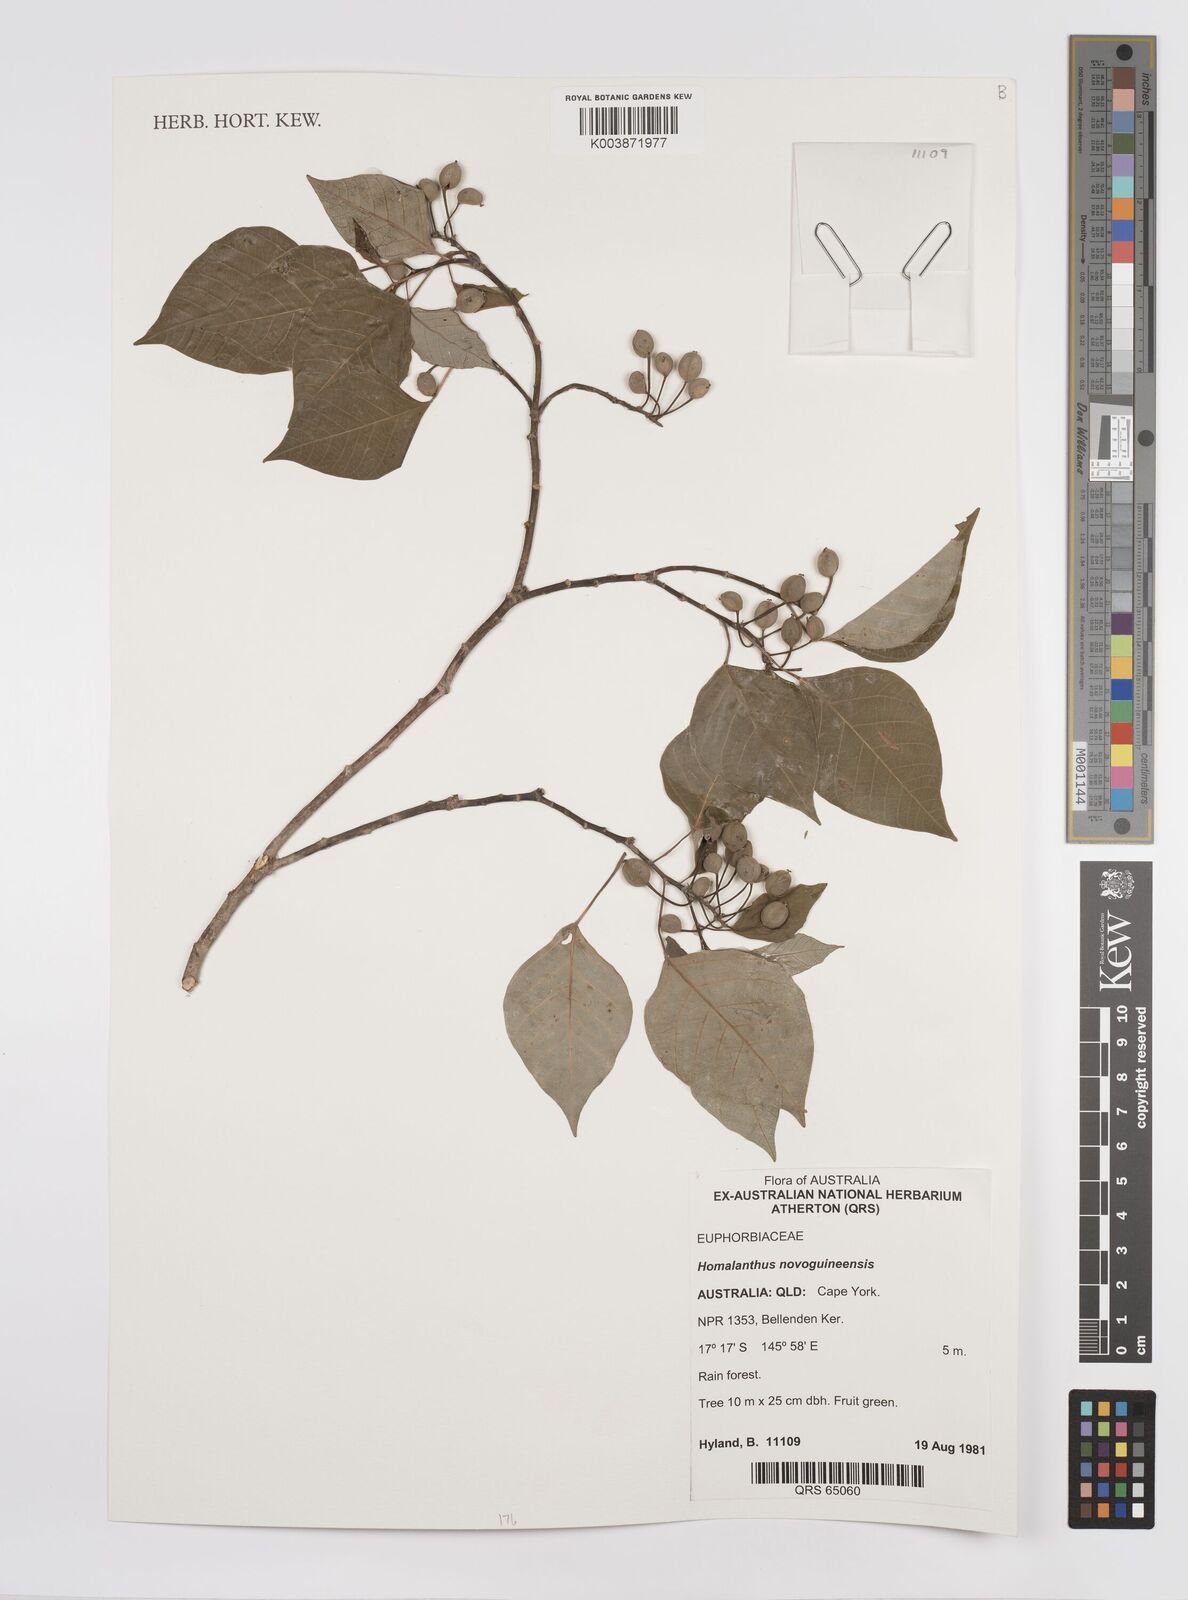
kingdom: Plantae
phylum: Tracheophyta
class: Magnoliopsida
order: Malpighiales
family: Euphorbiaceae
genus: Homalanthus
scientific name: Homalanthus novoguineensis
